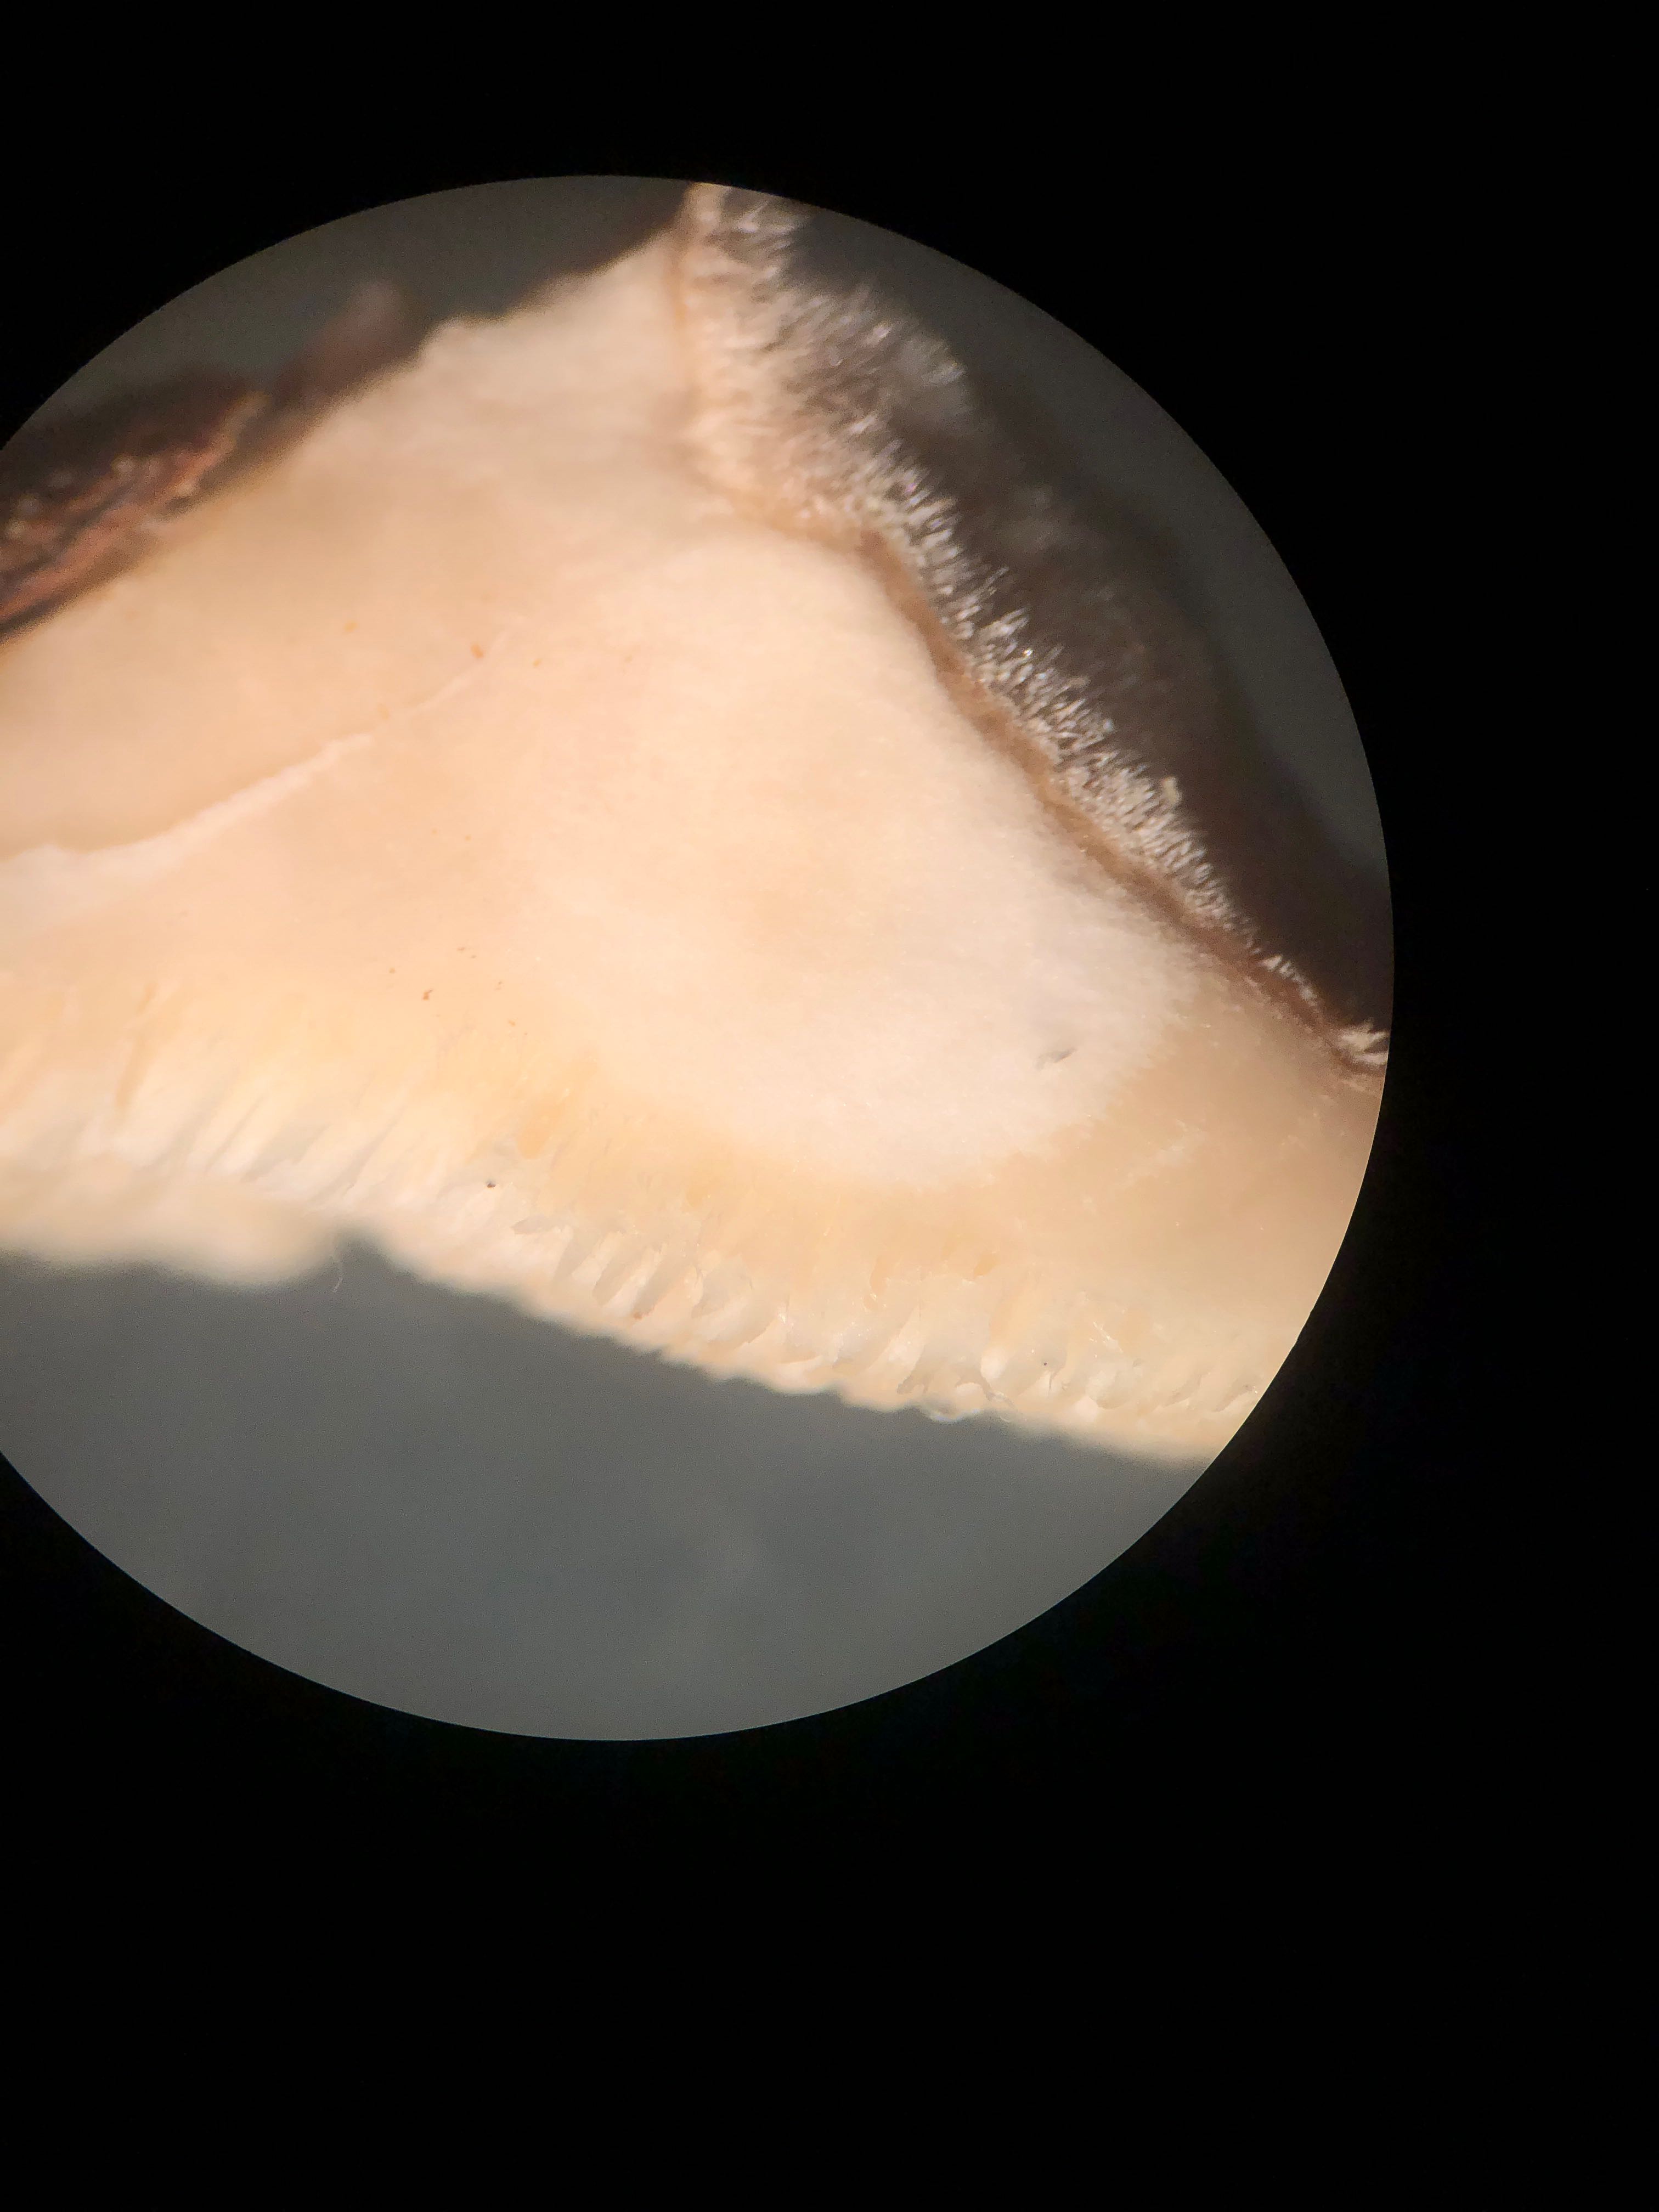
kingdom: Fungi
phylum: Basidiomycota
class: Agaricomycetes
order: Polyporales
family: Polyporaceae
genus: Trametes
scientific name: Trametes versicolor
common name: broget læderporesvamp
